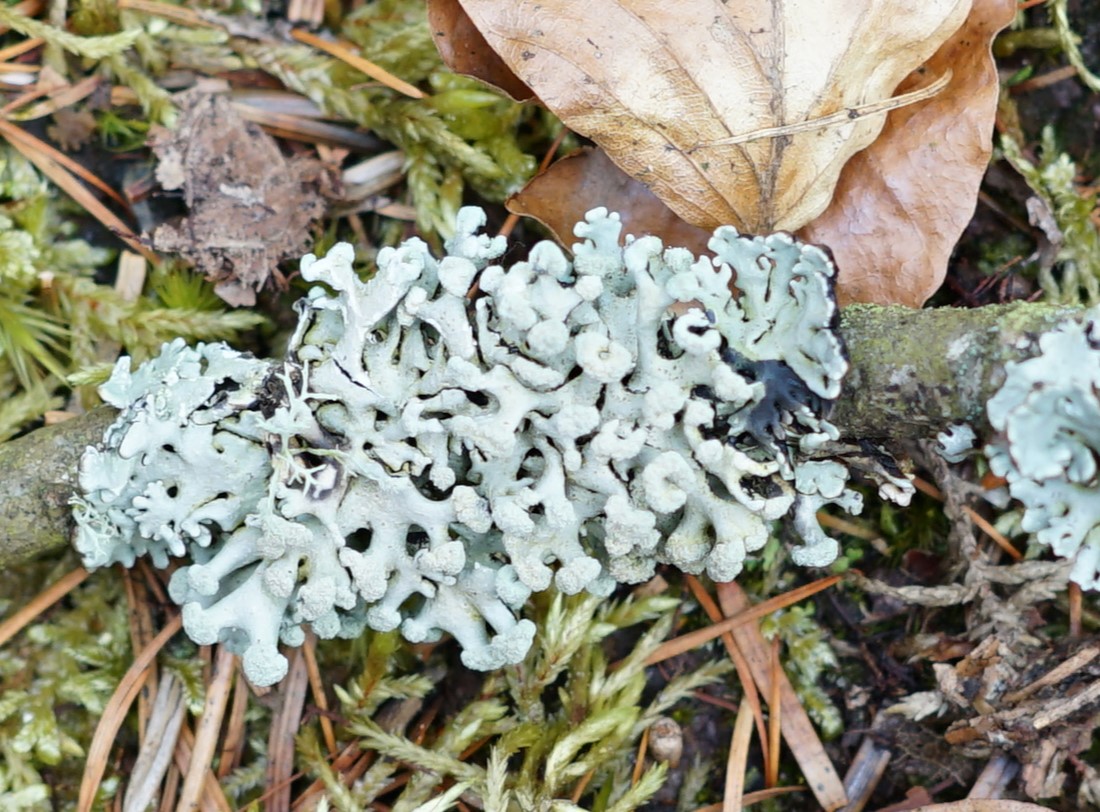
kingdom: Fungi
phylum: Ascomycota
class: Lecanoromycetes
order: Lecanorales
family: Parmeliaceae
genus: Hypogymnia
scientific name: Hypogymnia physodes
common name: almindelig kvistlav
